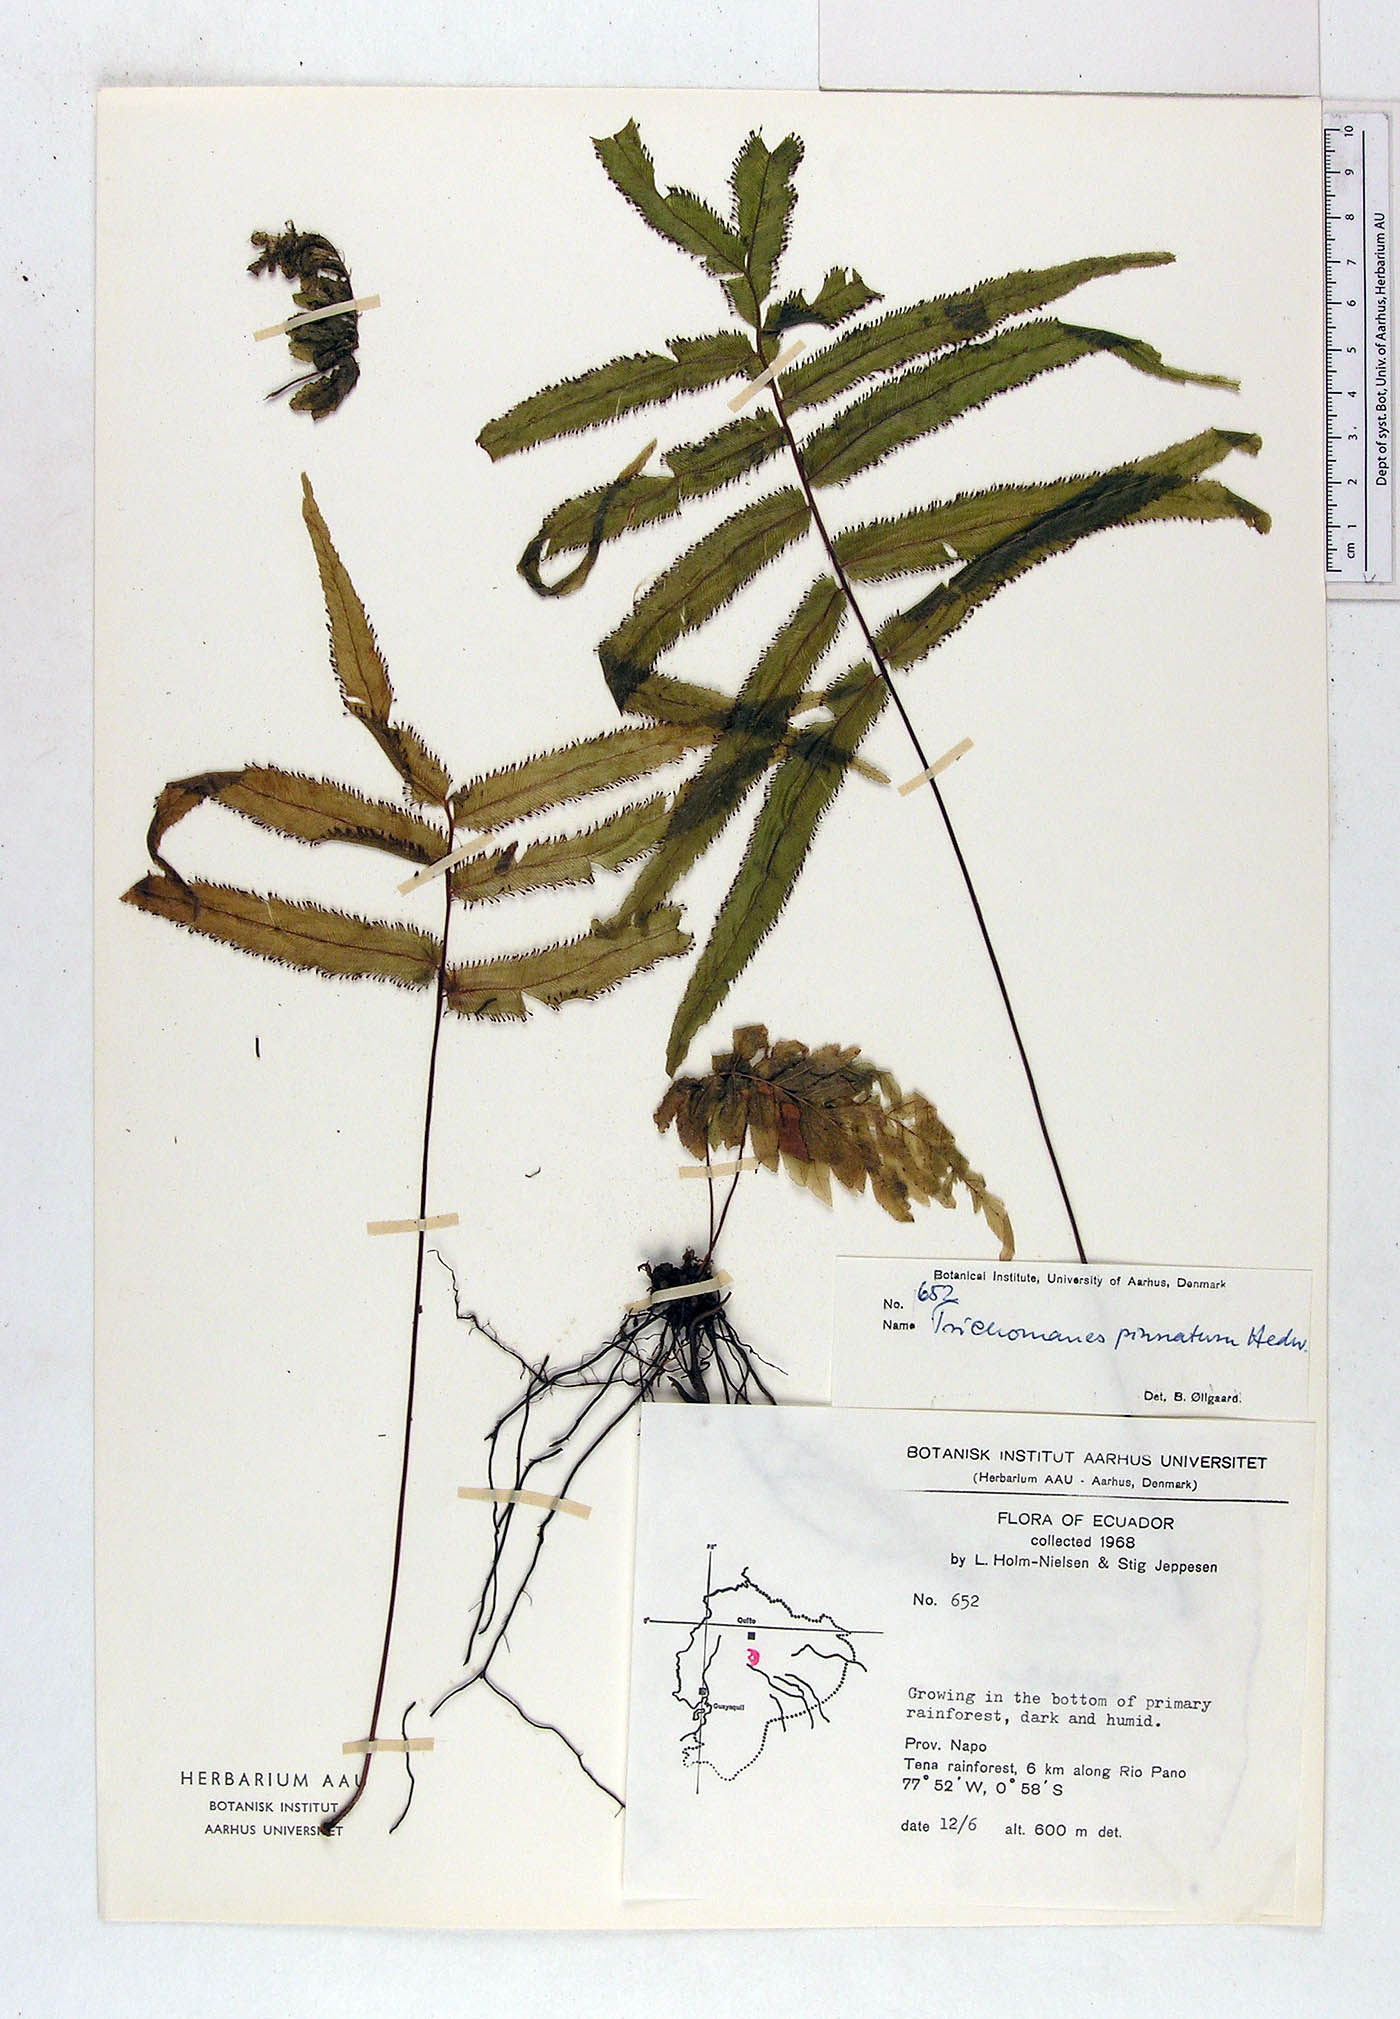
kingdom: Plantae
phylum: Tracheophyta
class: Polypodiopsida
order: Hymenophyllales
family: Hymenophyllaceae
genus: Trichomanes
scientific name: Trichomanes pinnatum
